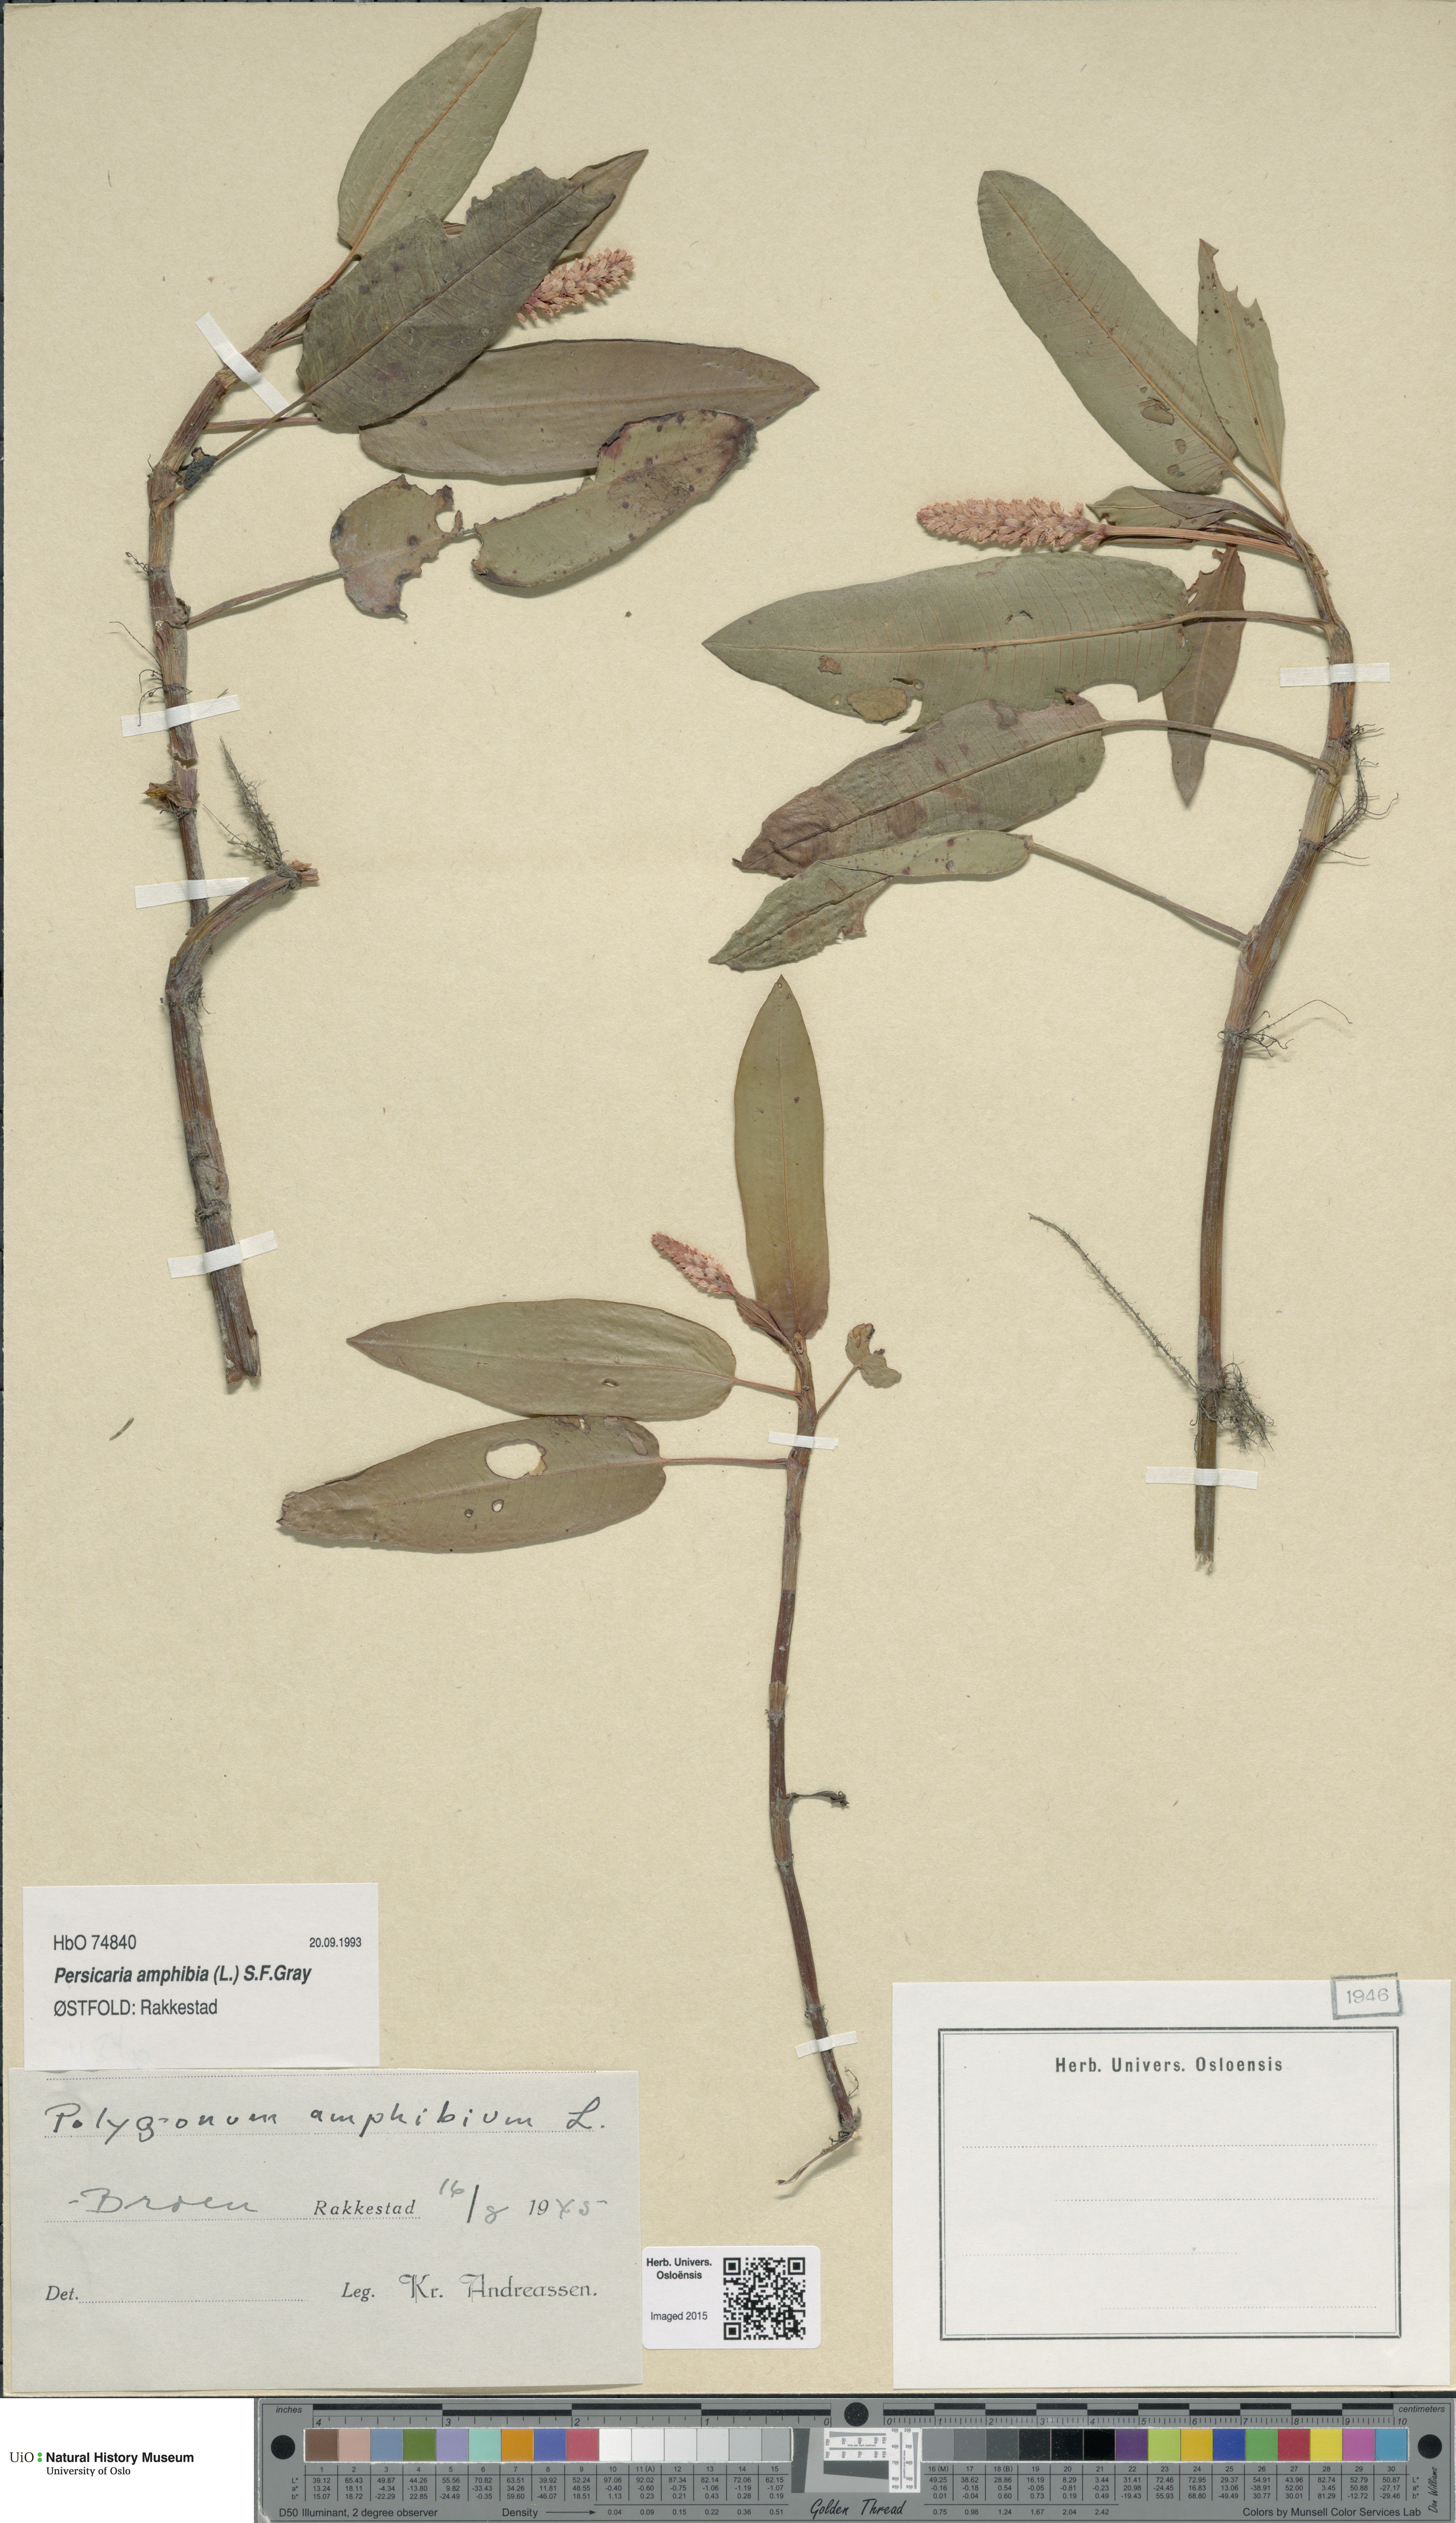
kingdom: Plantae
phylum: Tracheophyta
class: Magnoliopsida
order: Caryophyllales
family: Polygonaceae
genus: Persicaria
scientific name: Persicaria amphibia
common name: Amphibious bistort
